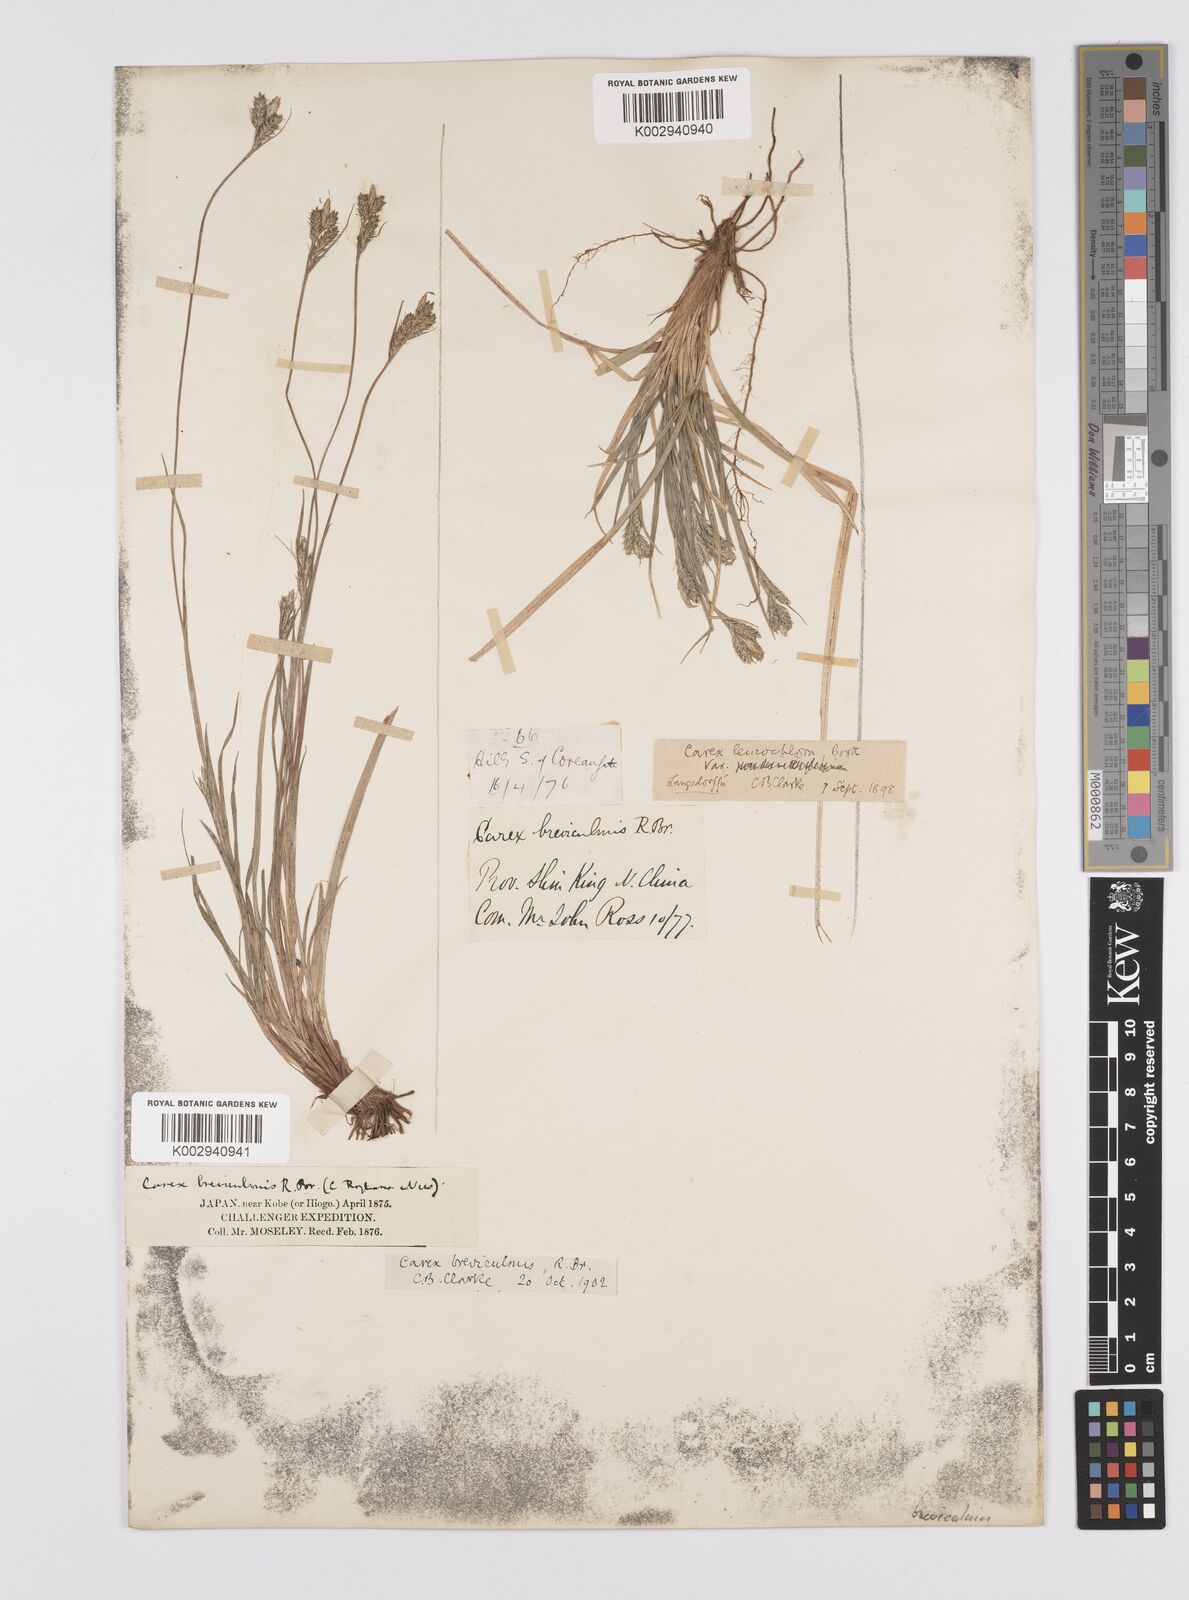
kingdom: Plantae
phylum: Tracheophyta
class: Liliopsida
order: Poales
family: Cyperaceae
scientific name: Cyperaceae
